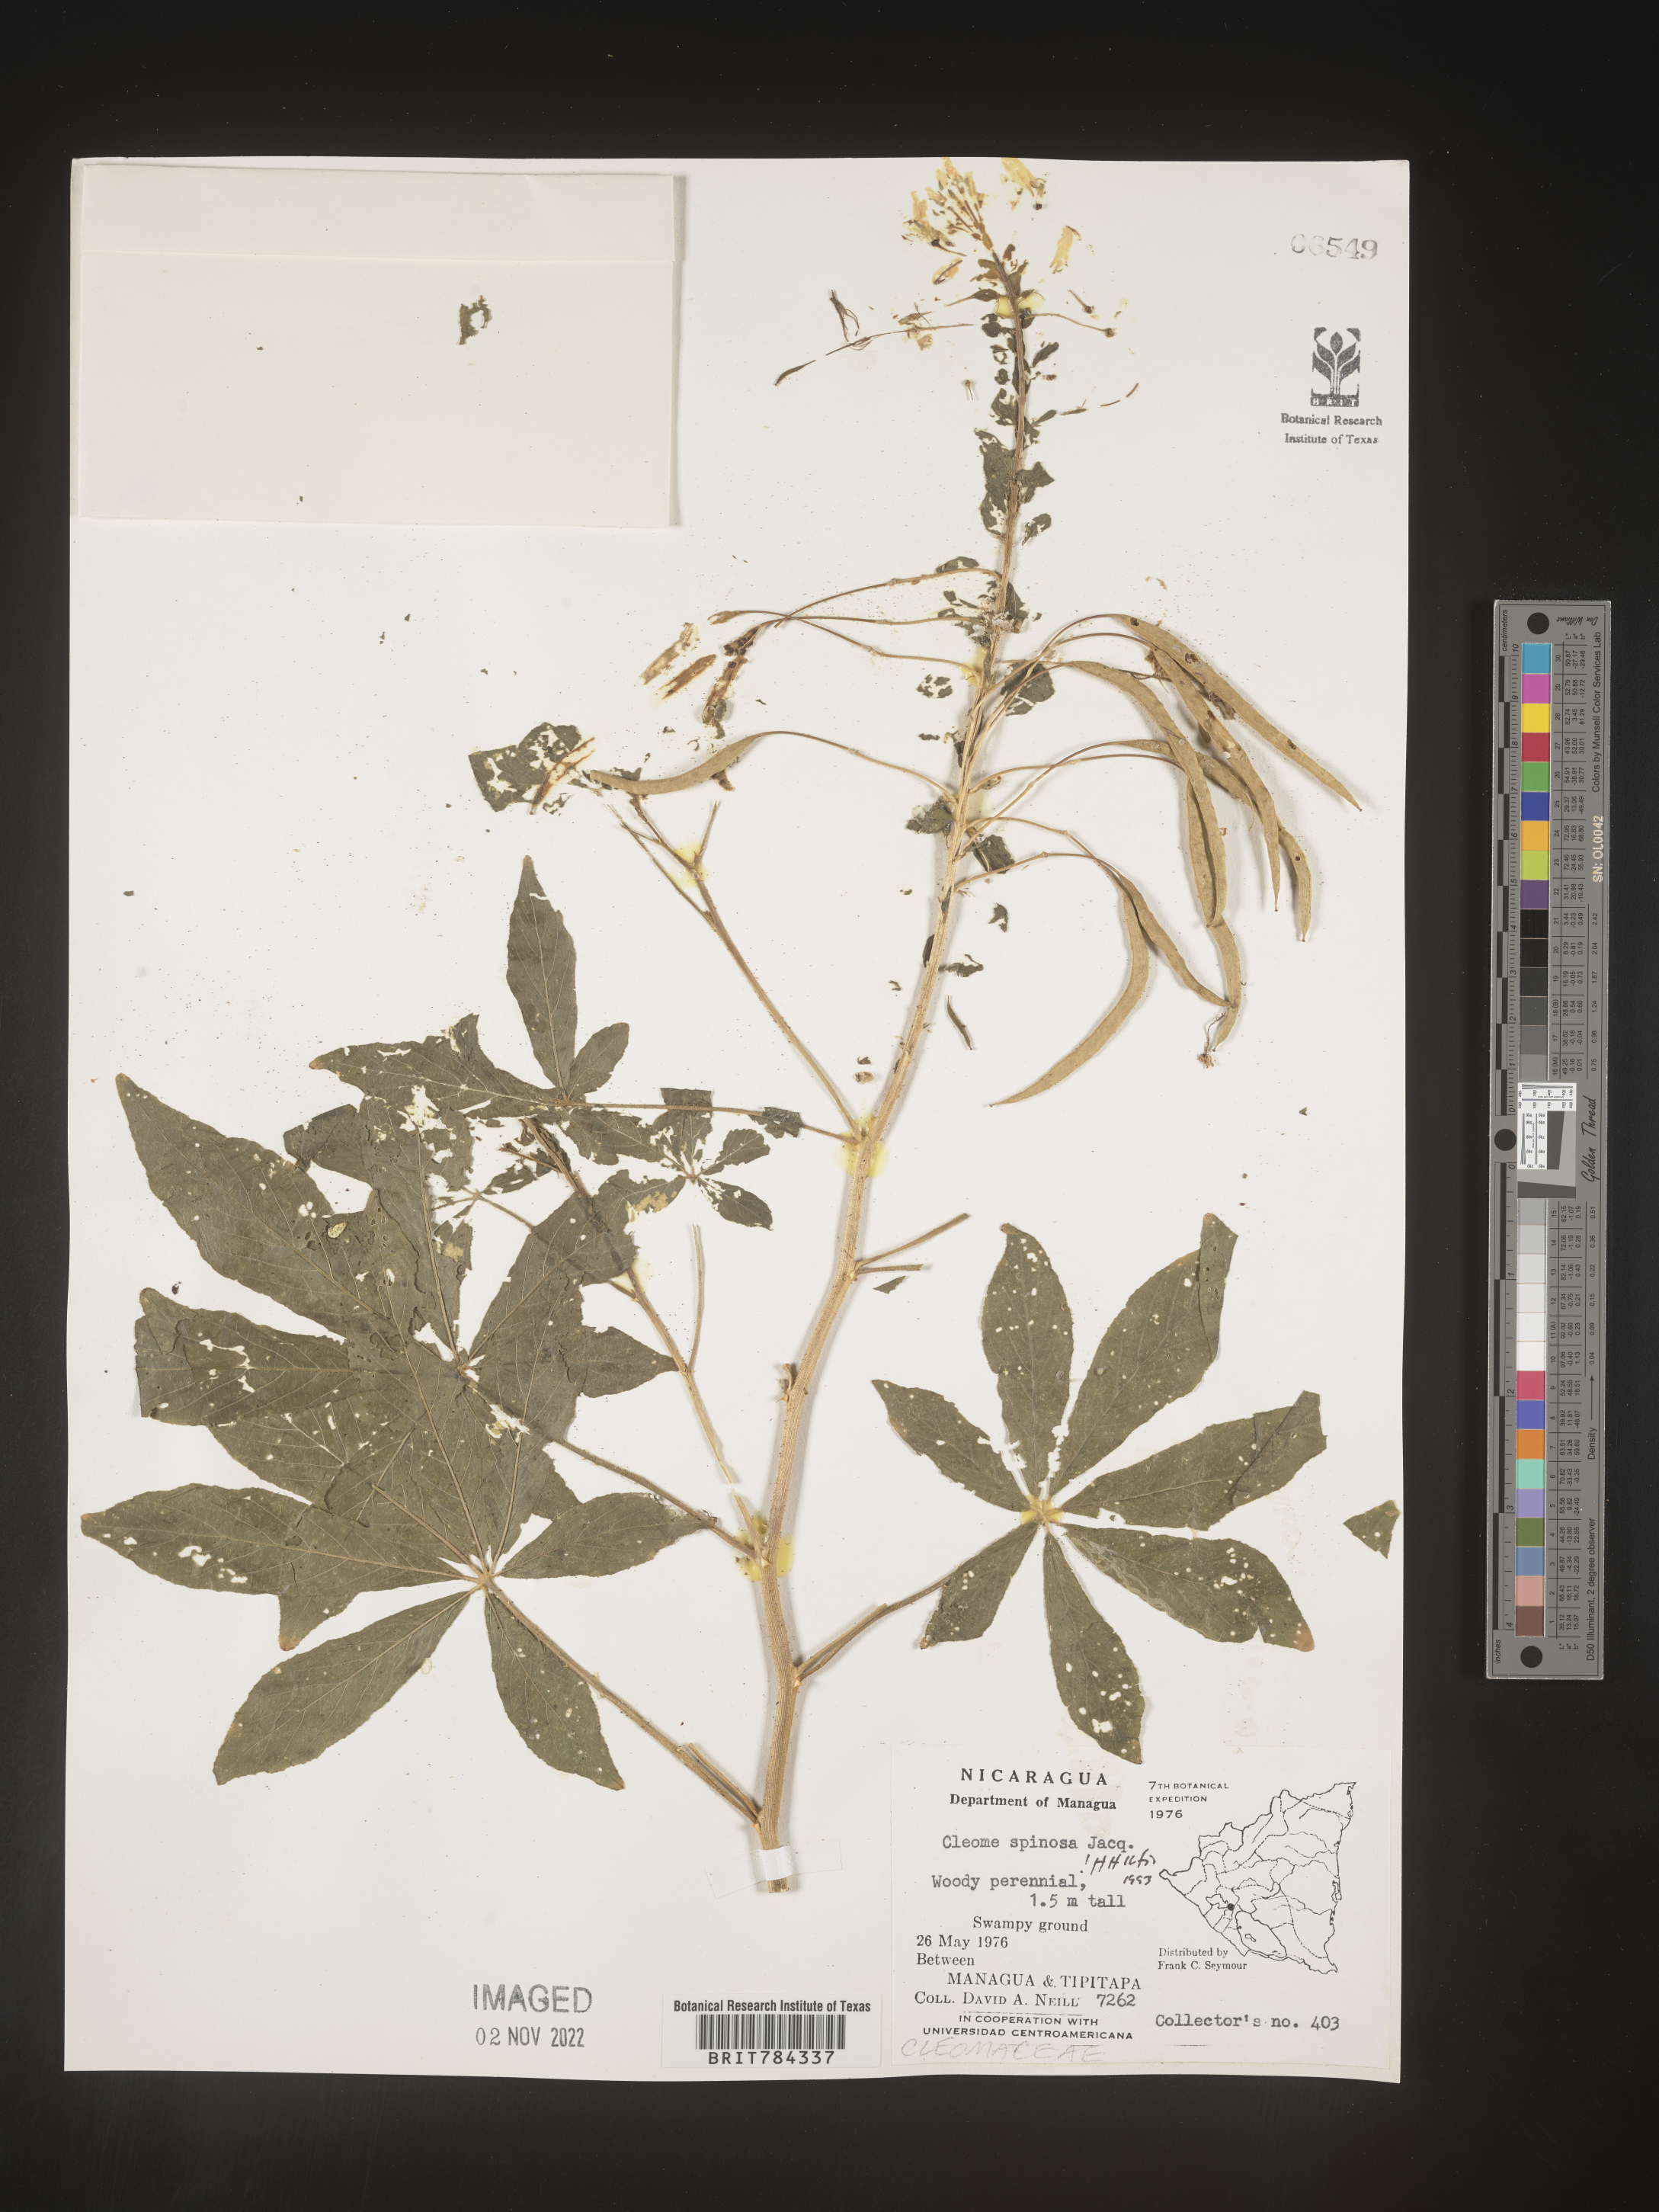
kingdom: Plantae
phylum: Tracheophyta
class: Magnoliopsida
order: Brassicales
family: Cleomaceae
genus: Cleome
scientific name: Cleome
